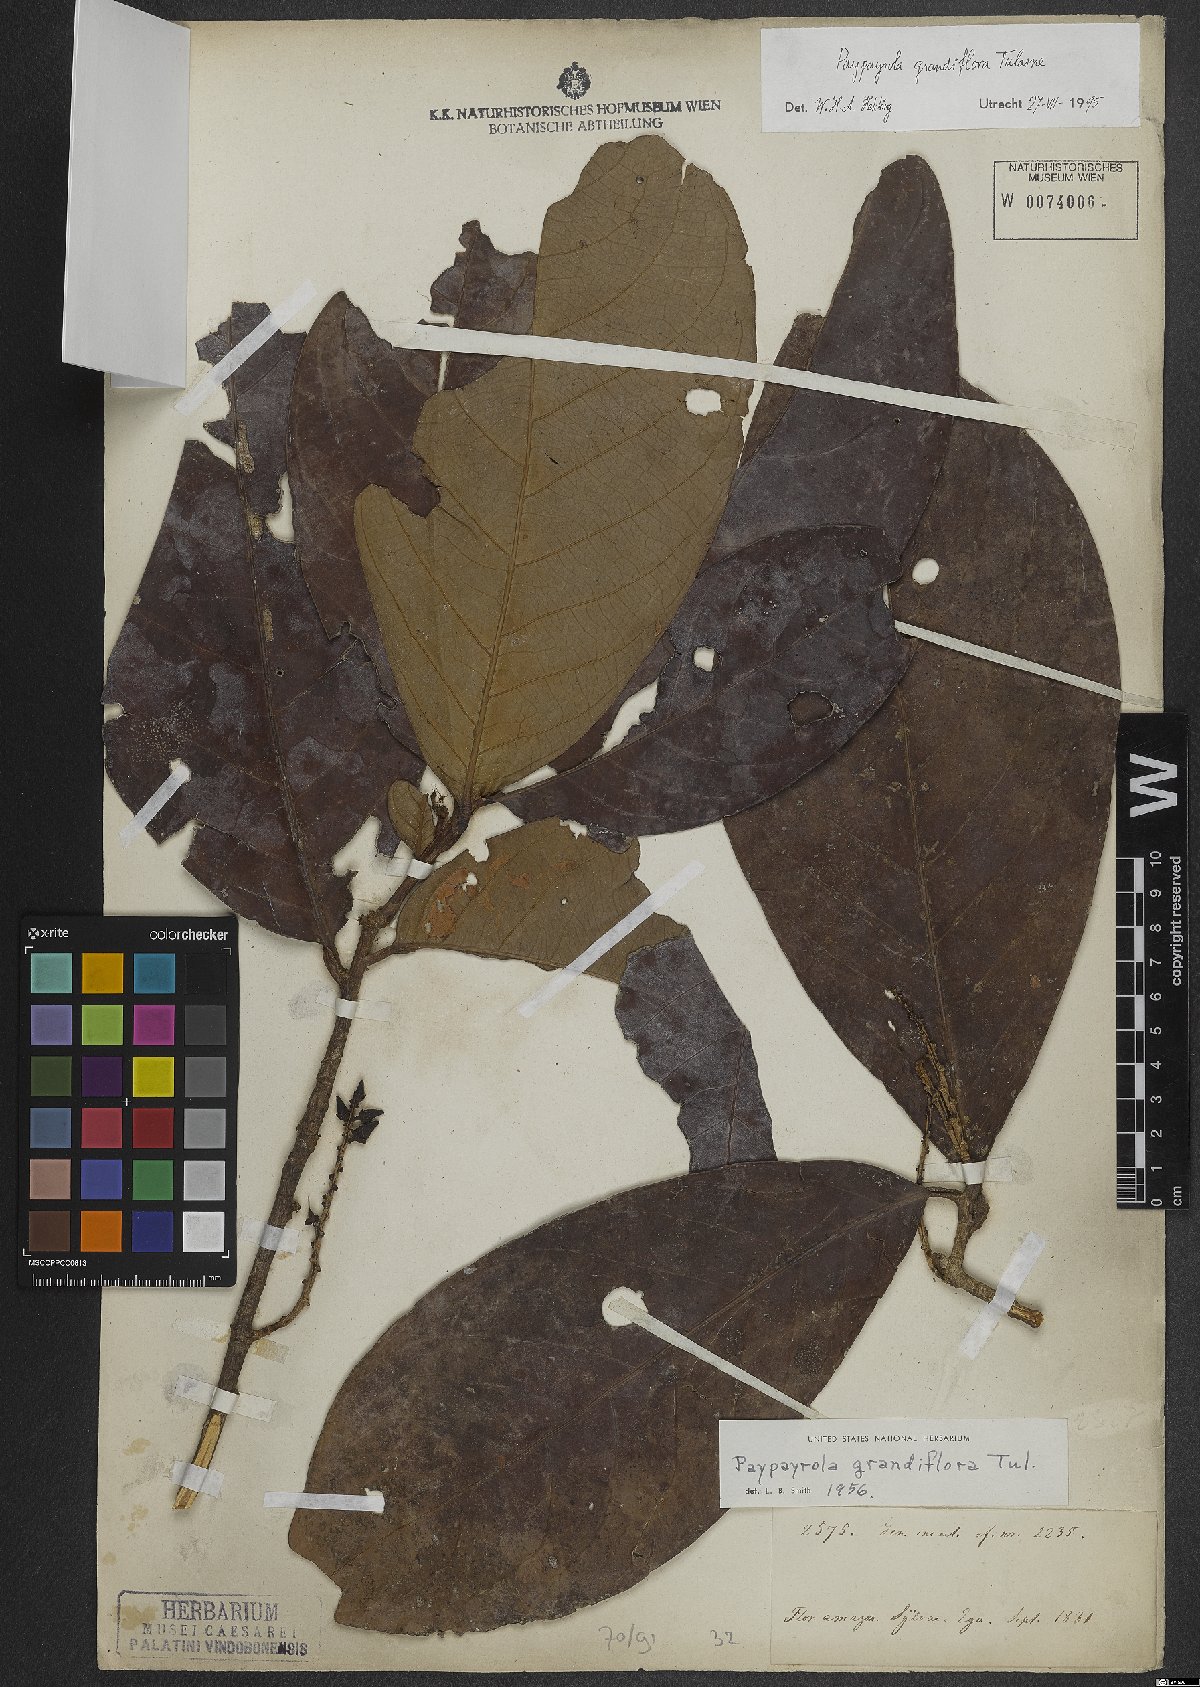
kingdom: Plantae
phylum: Tracheophyta
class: Magnoliopsida
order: Malpighiales
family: Violaceae
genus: Paypayrola
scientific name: Paypayrola grandiflora
